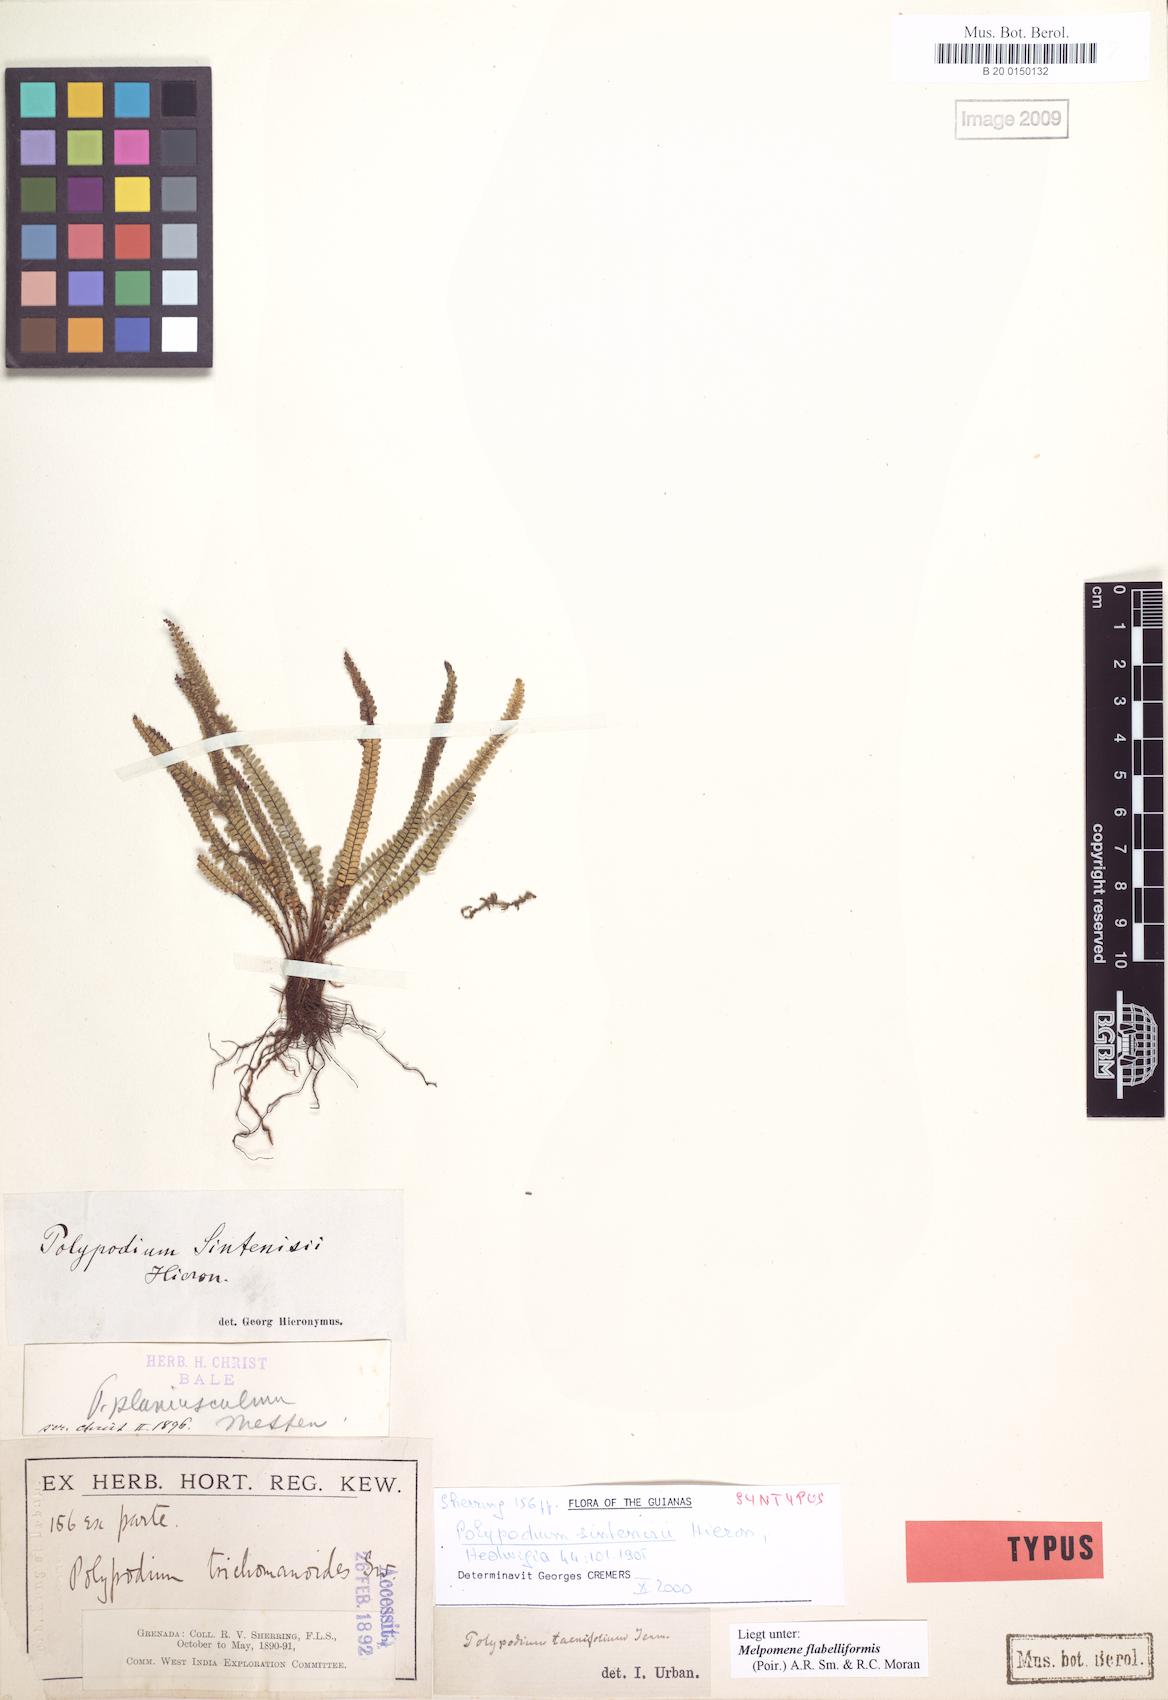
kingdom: Plantae
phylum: Tracheophyta
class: Polypodiopsida
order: Polypodiales
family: Polypodiaceae
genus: Moranopteris
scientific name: Moranopteris taenifolia
